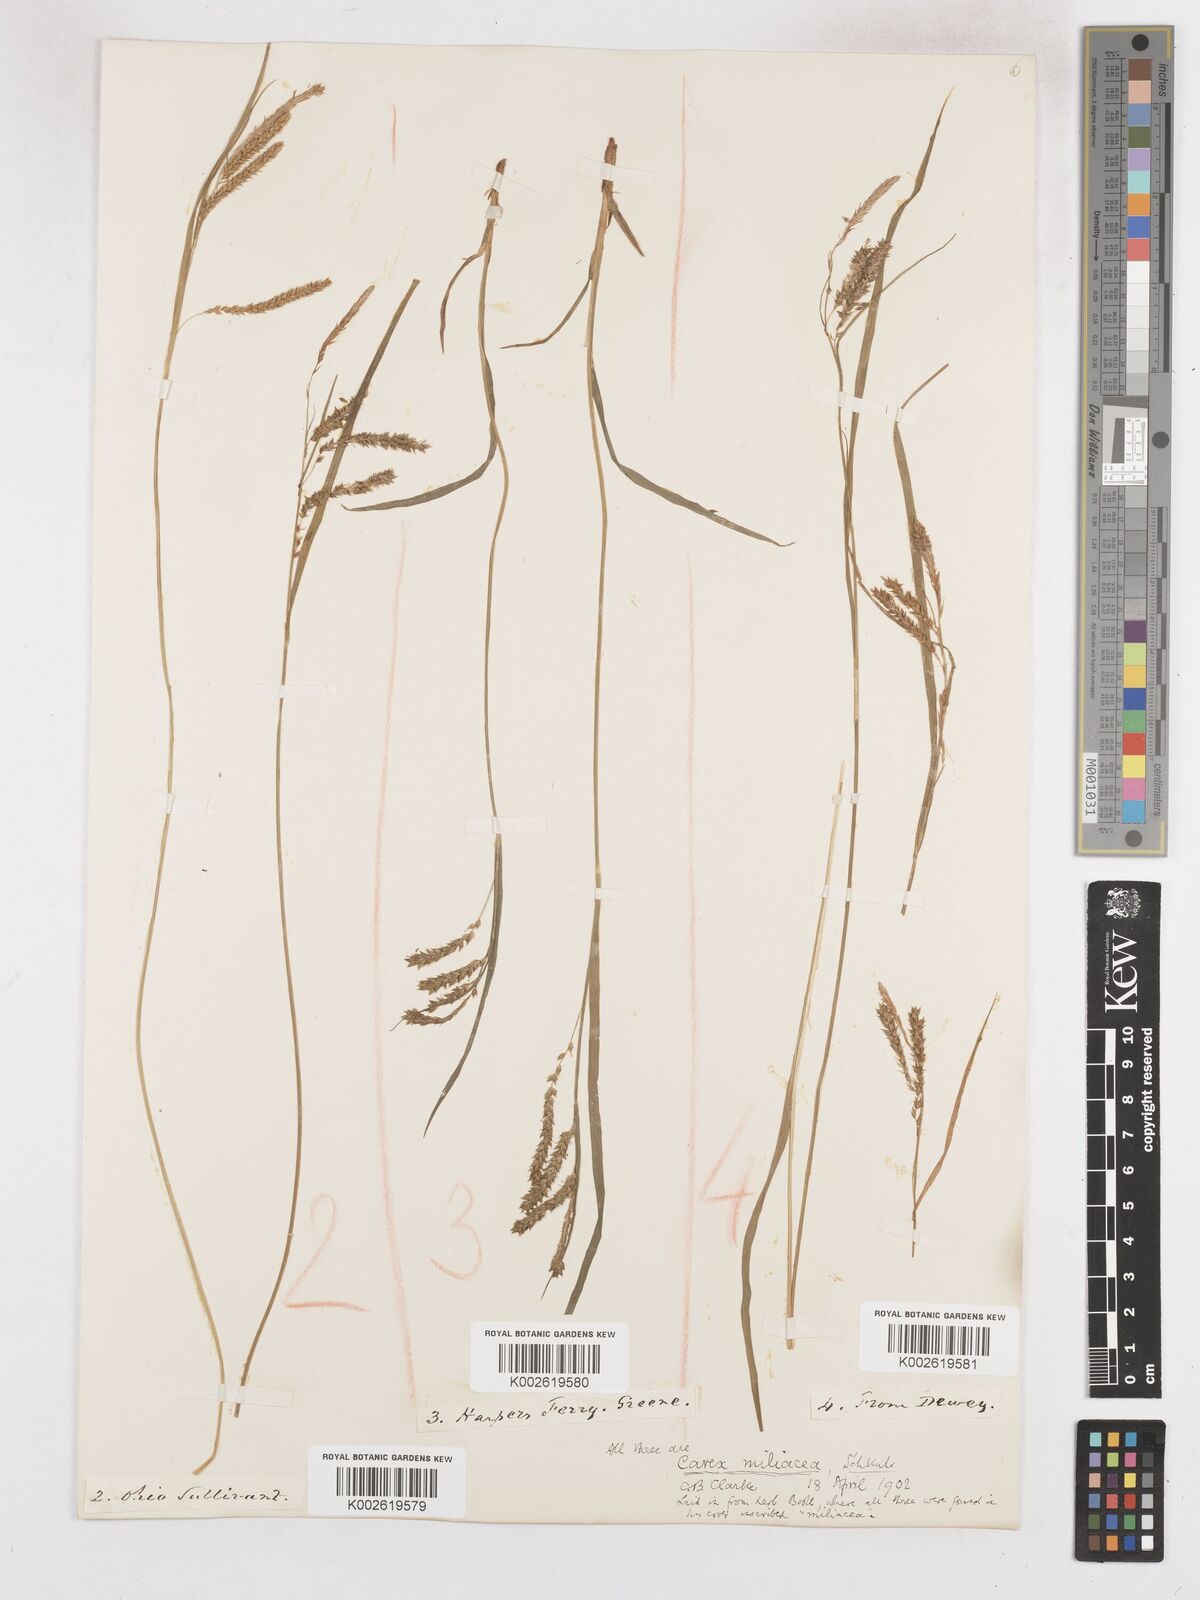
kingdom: Plantae
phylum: Tracheophyta
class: Liliopsida
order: Poales
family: Cyperaceae
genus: Carex
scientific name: Carex prasina
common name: Drooping sedge
